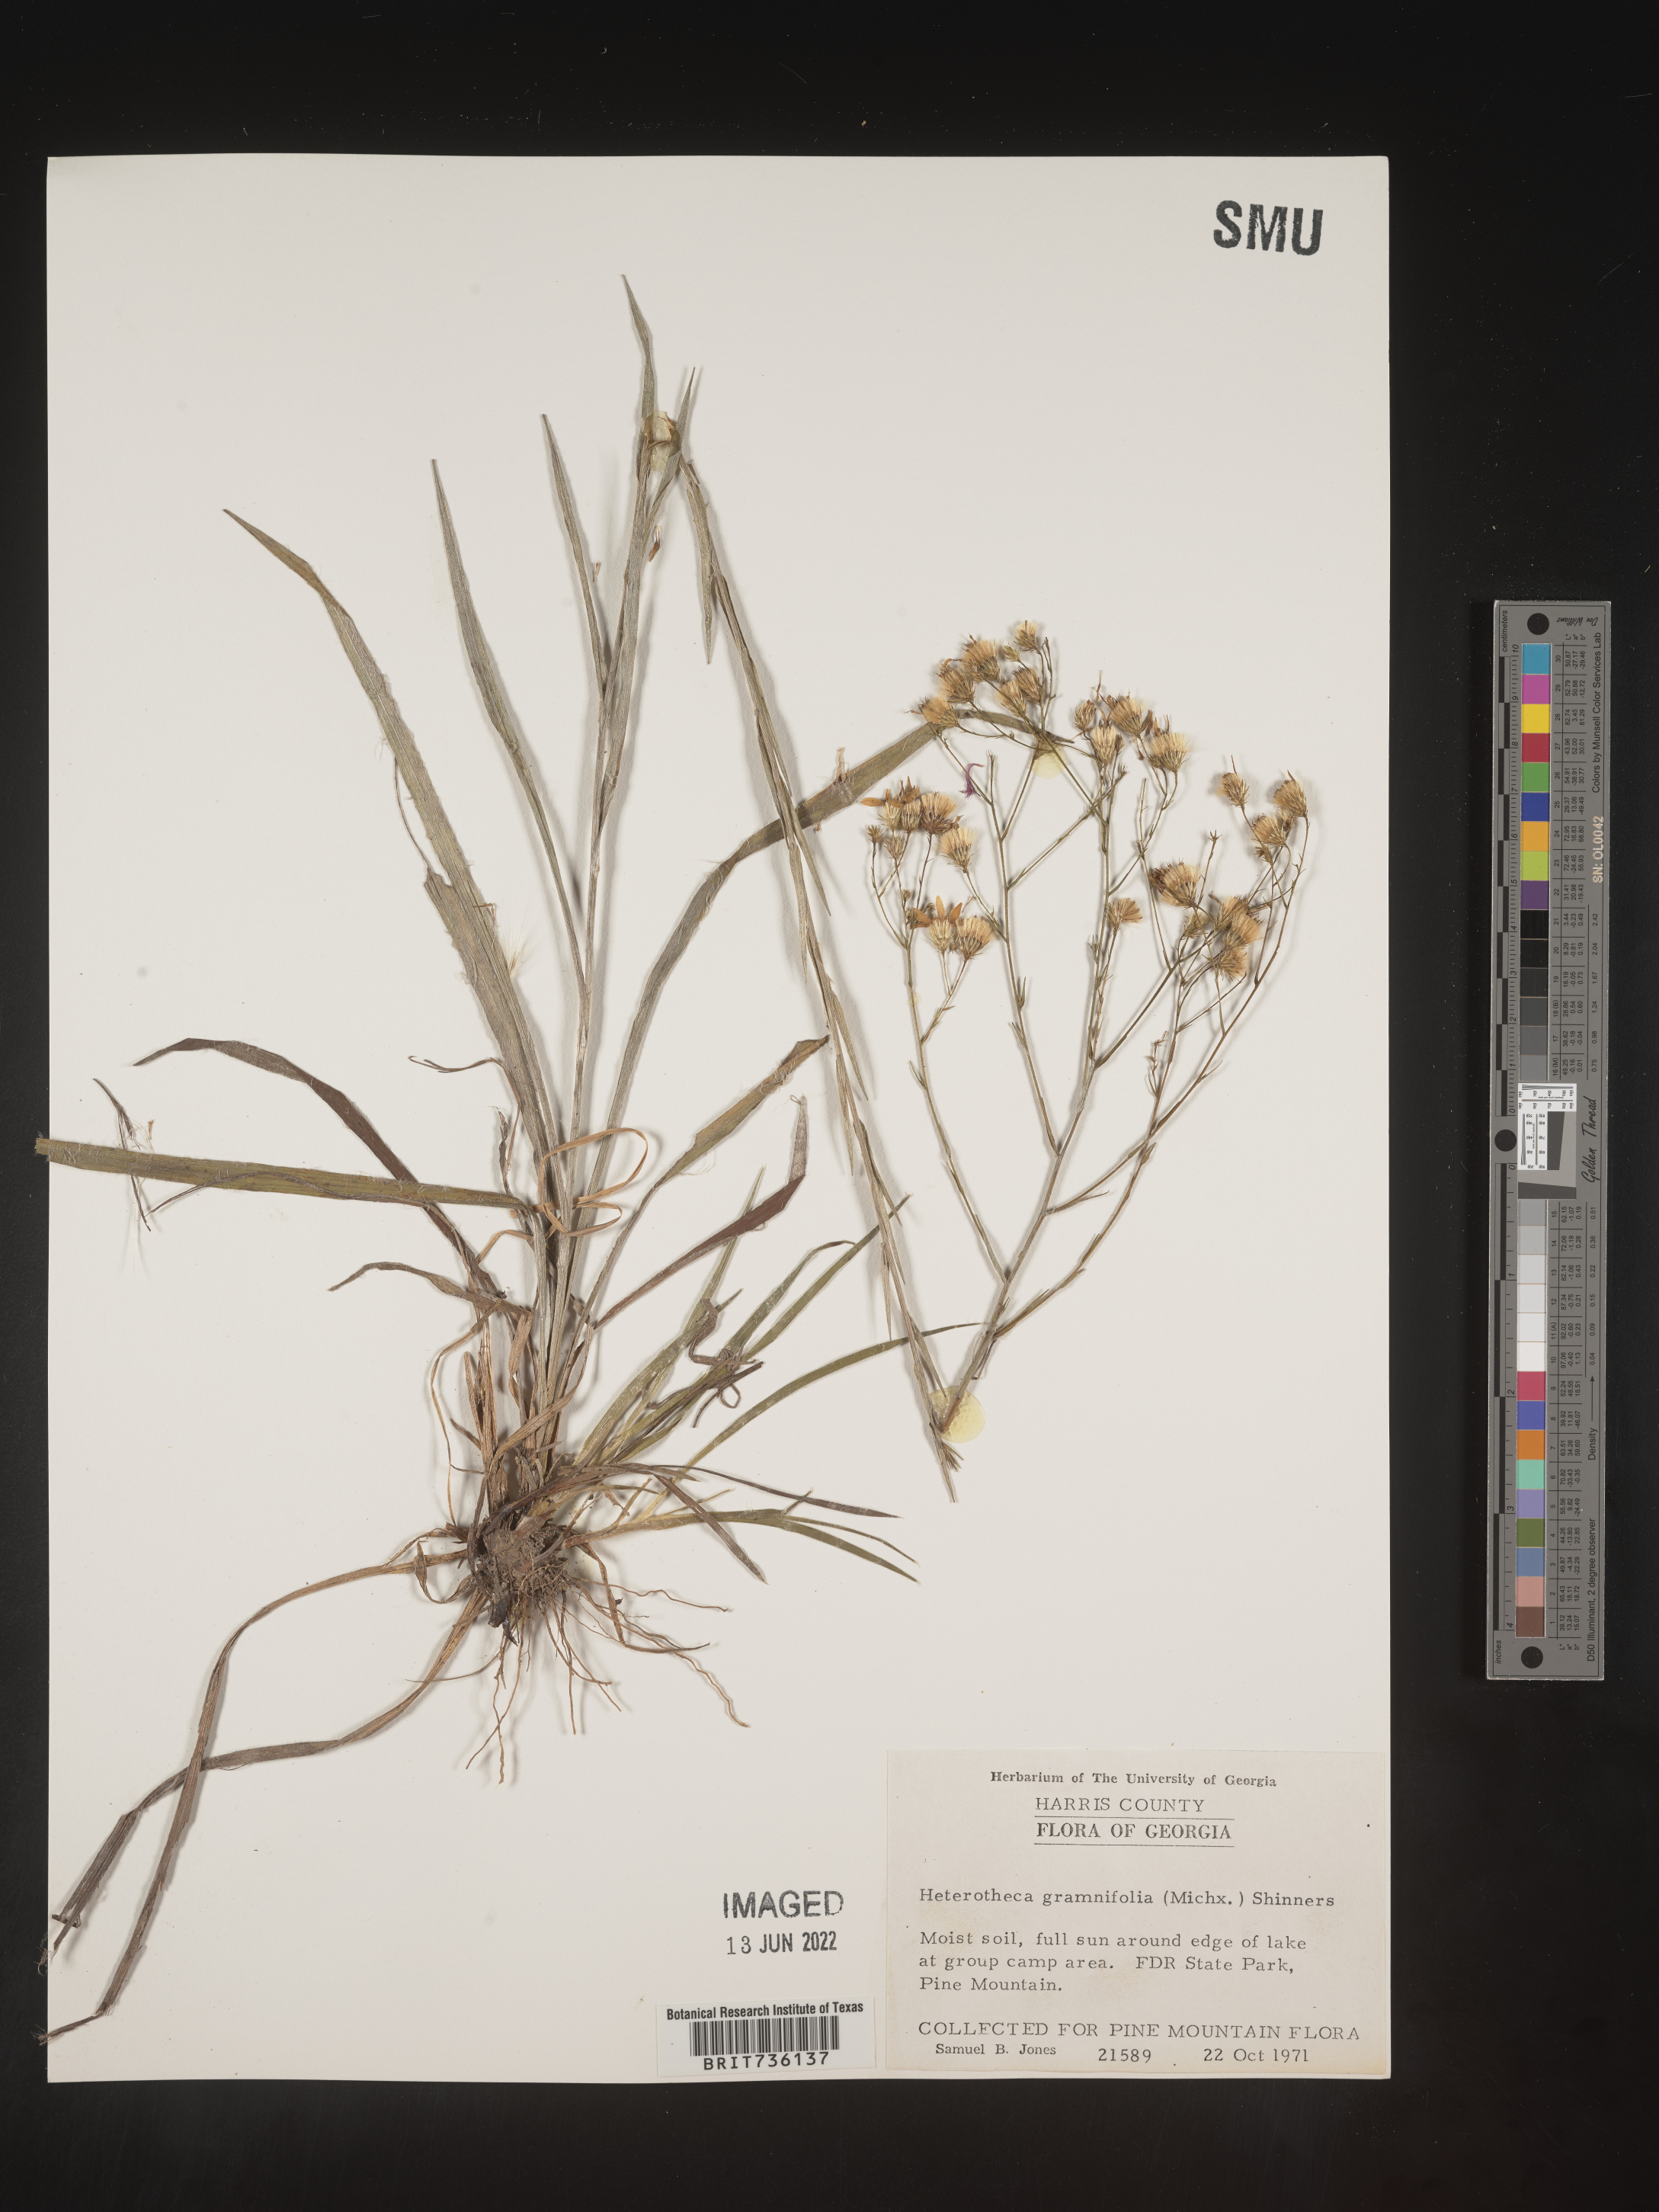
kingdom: Plantae
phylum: Tracheophyta
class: Magnoliopsida
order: Asterales
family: Asteraceae
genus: Pityopsis
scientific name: Pityopsis aspera
